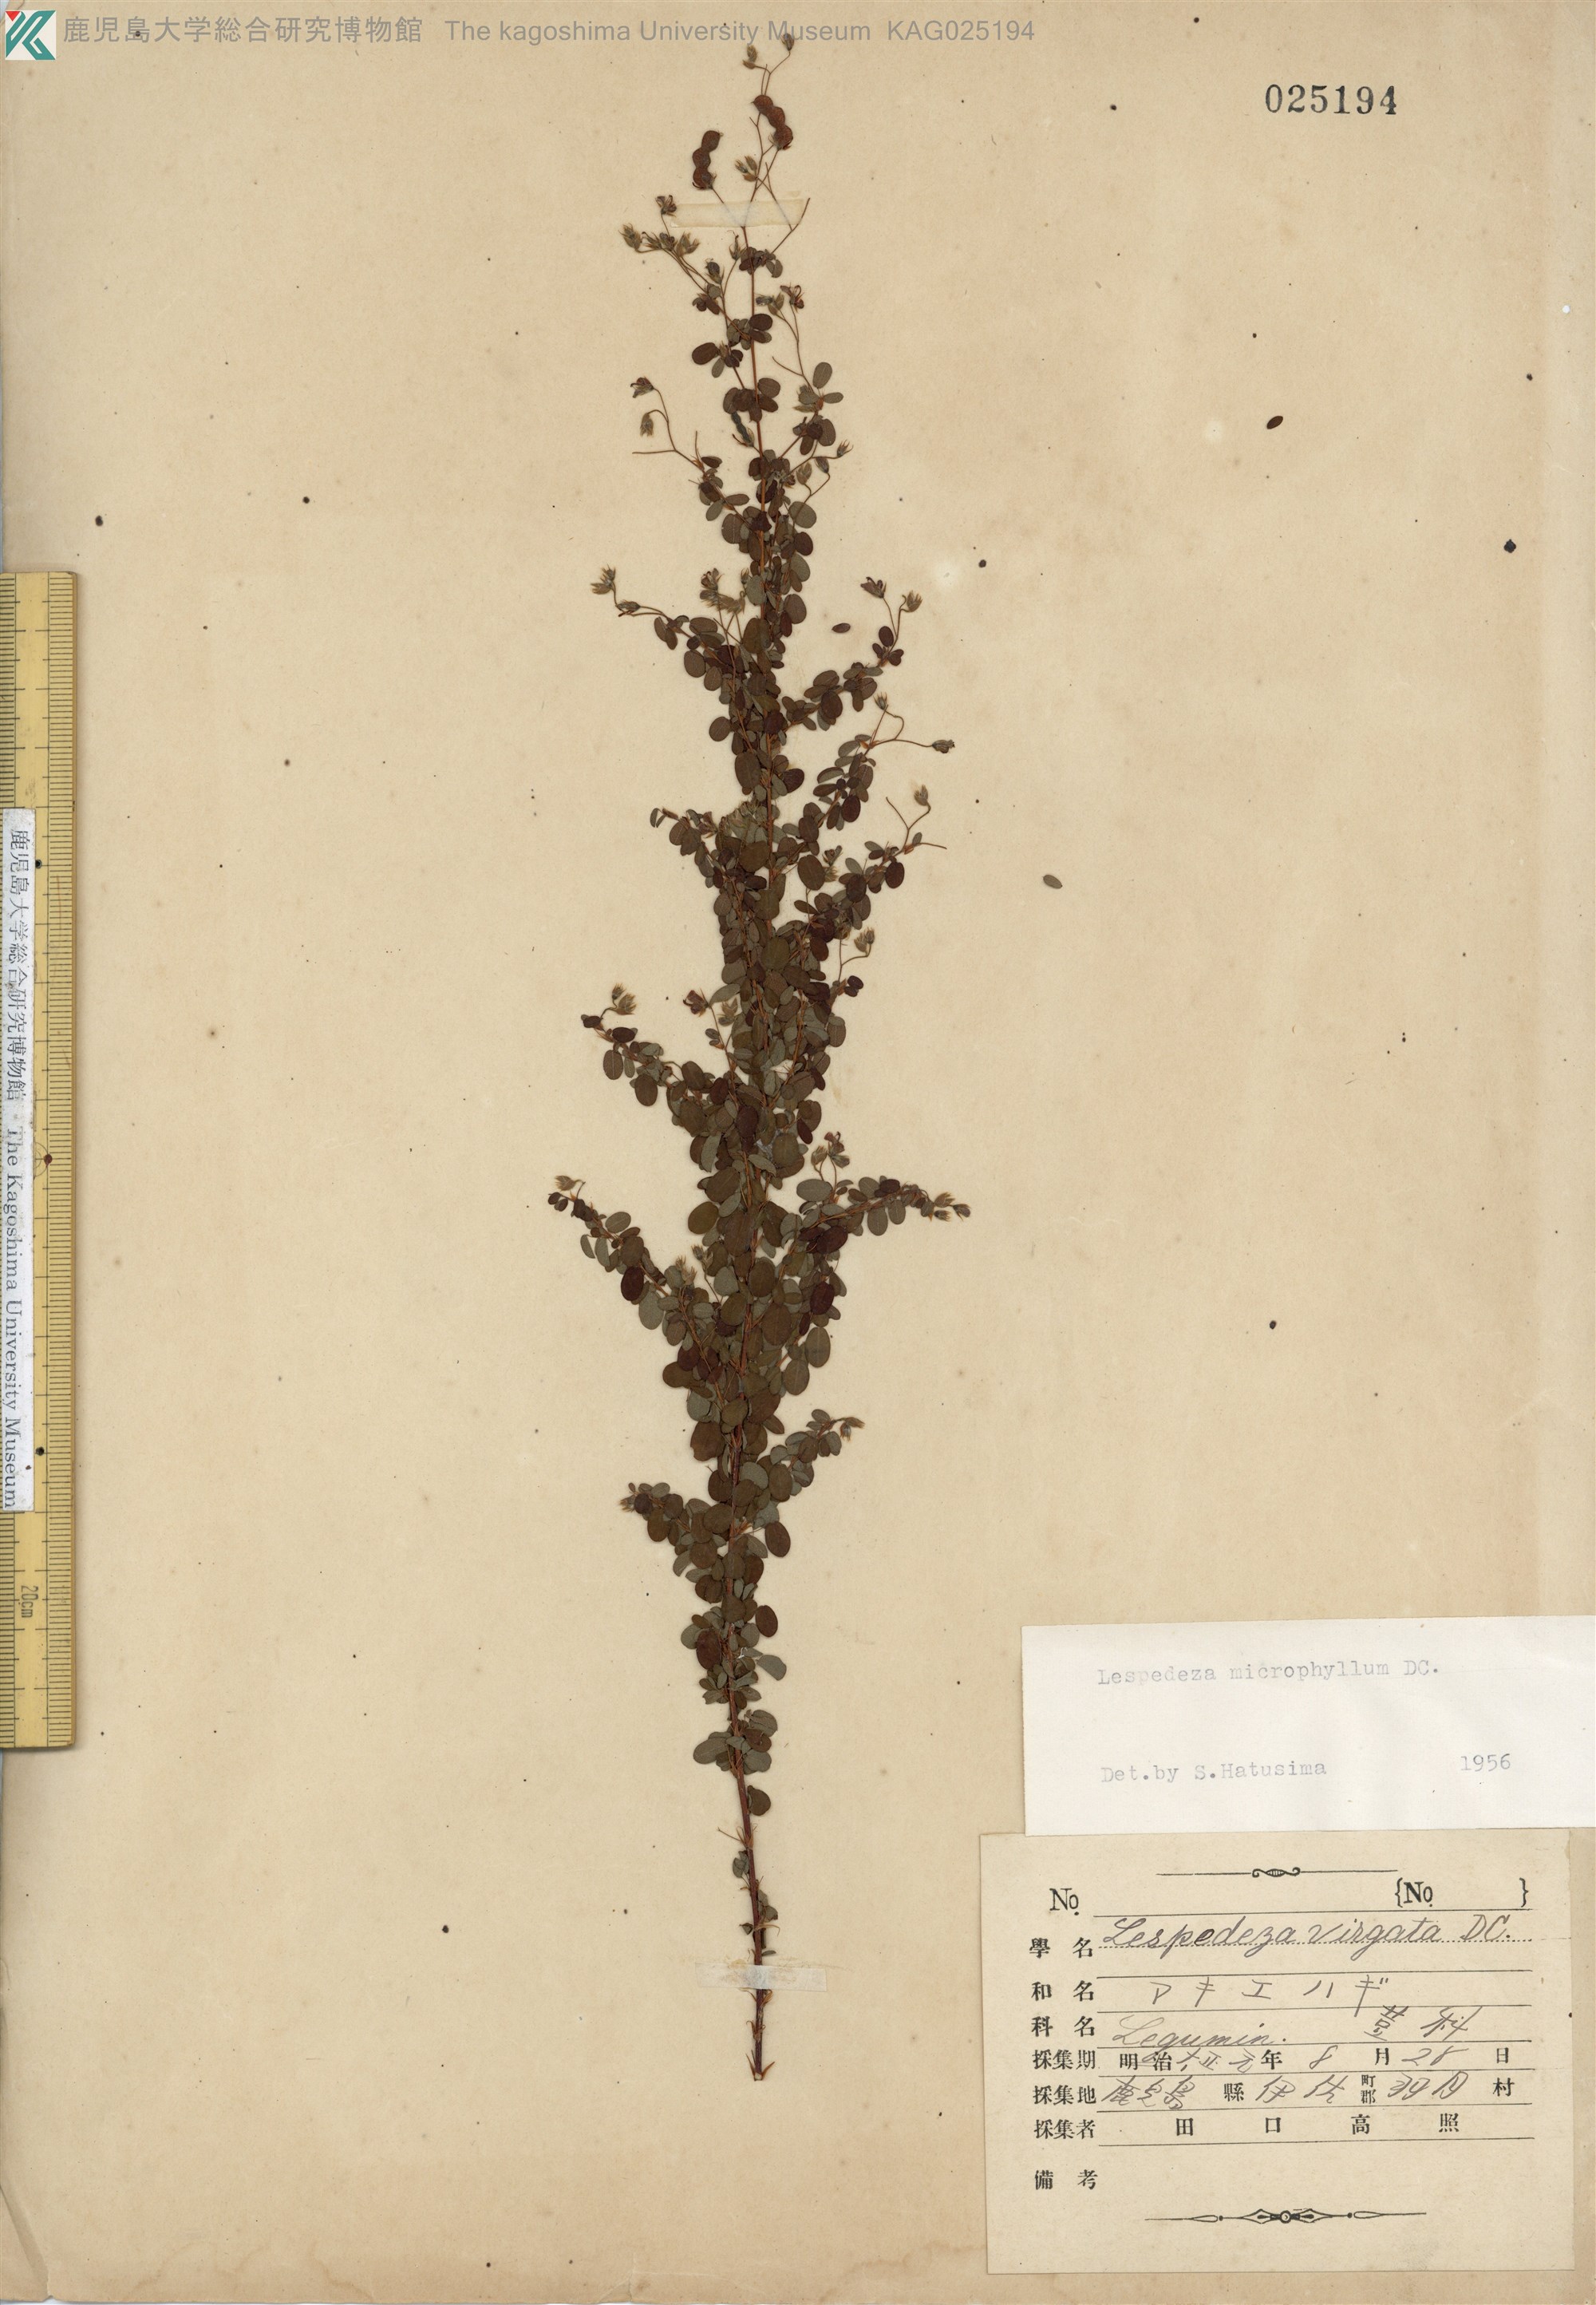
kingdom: Plantae
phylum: Tracheophyta
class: Magnoliopsida
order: Fabales
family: Fabaceae
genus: Leptodesmia
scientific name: Leptodesmia microphylla
